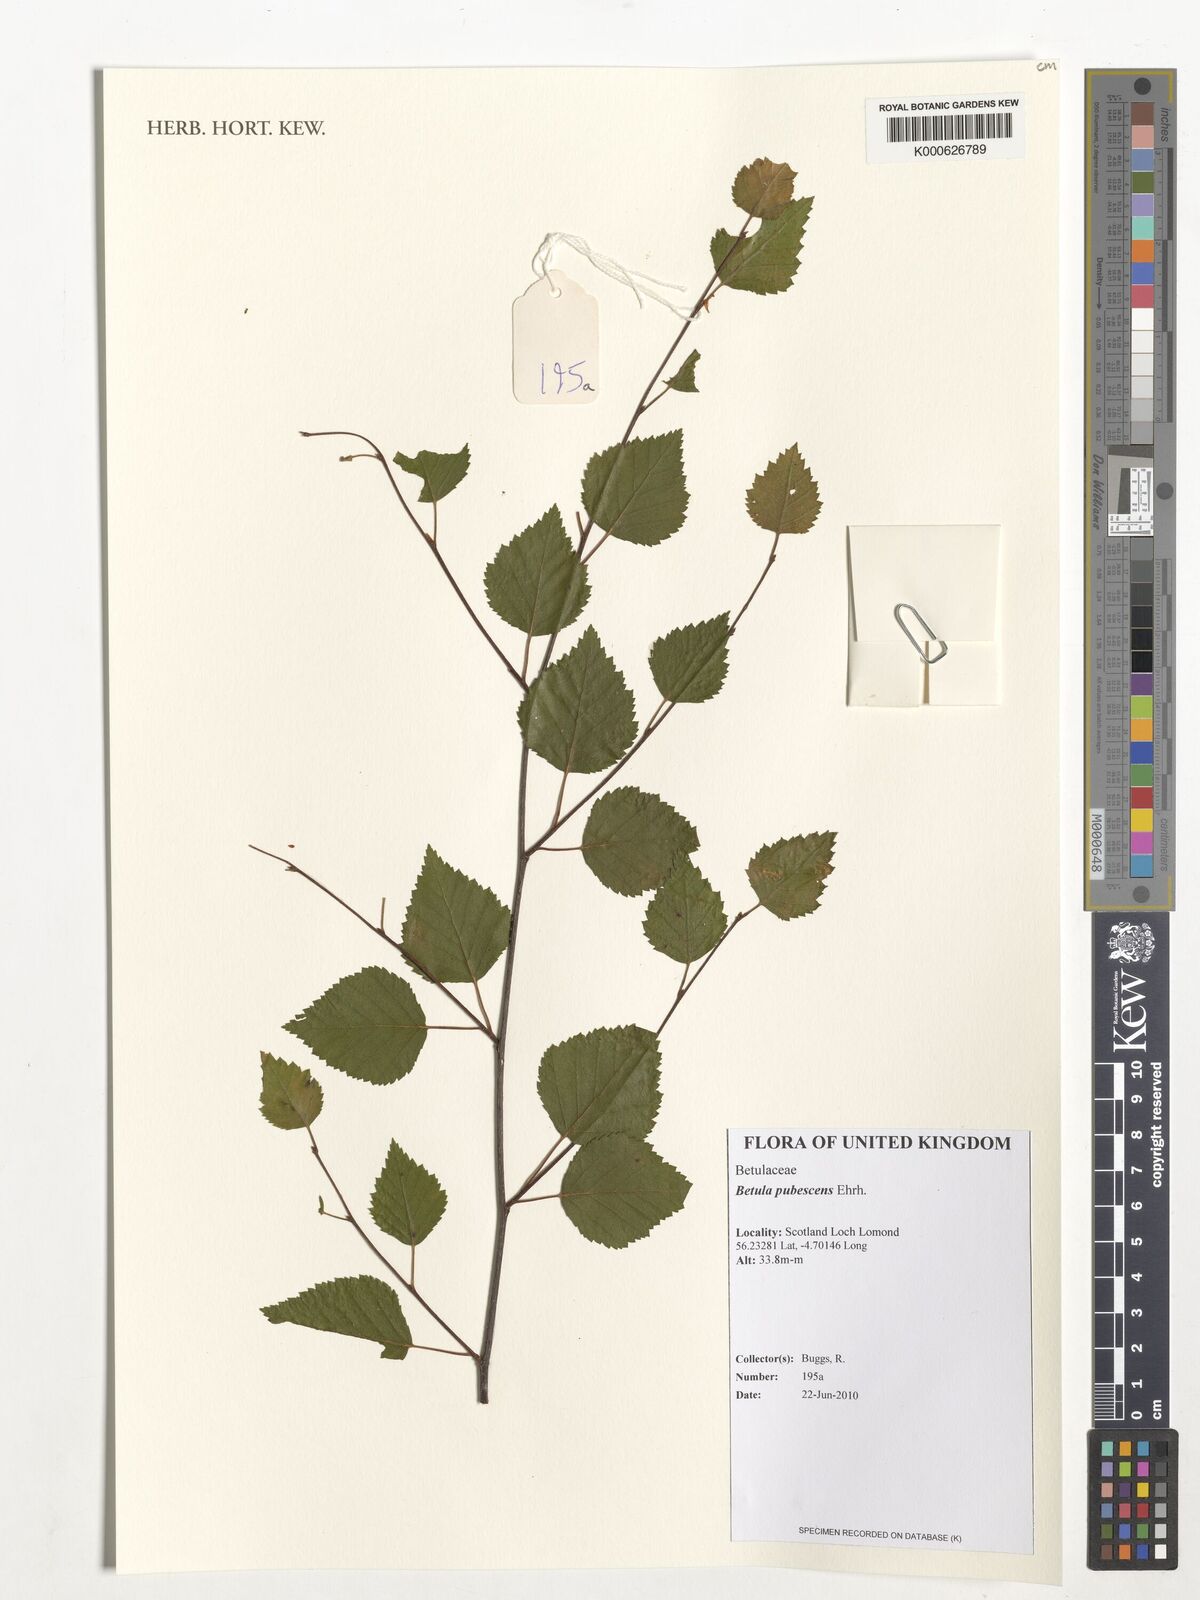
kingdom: Plantae
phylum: Tracheophyta
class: Magnoliopsida
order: Fagales
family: Betulaceae
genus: Betula
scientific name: Betula pubescens
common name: Downy birch
